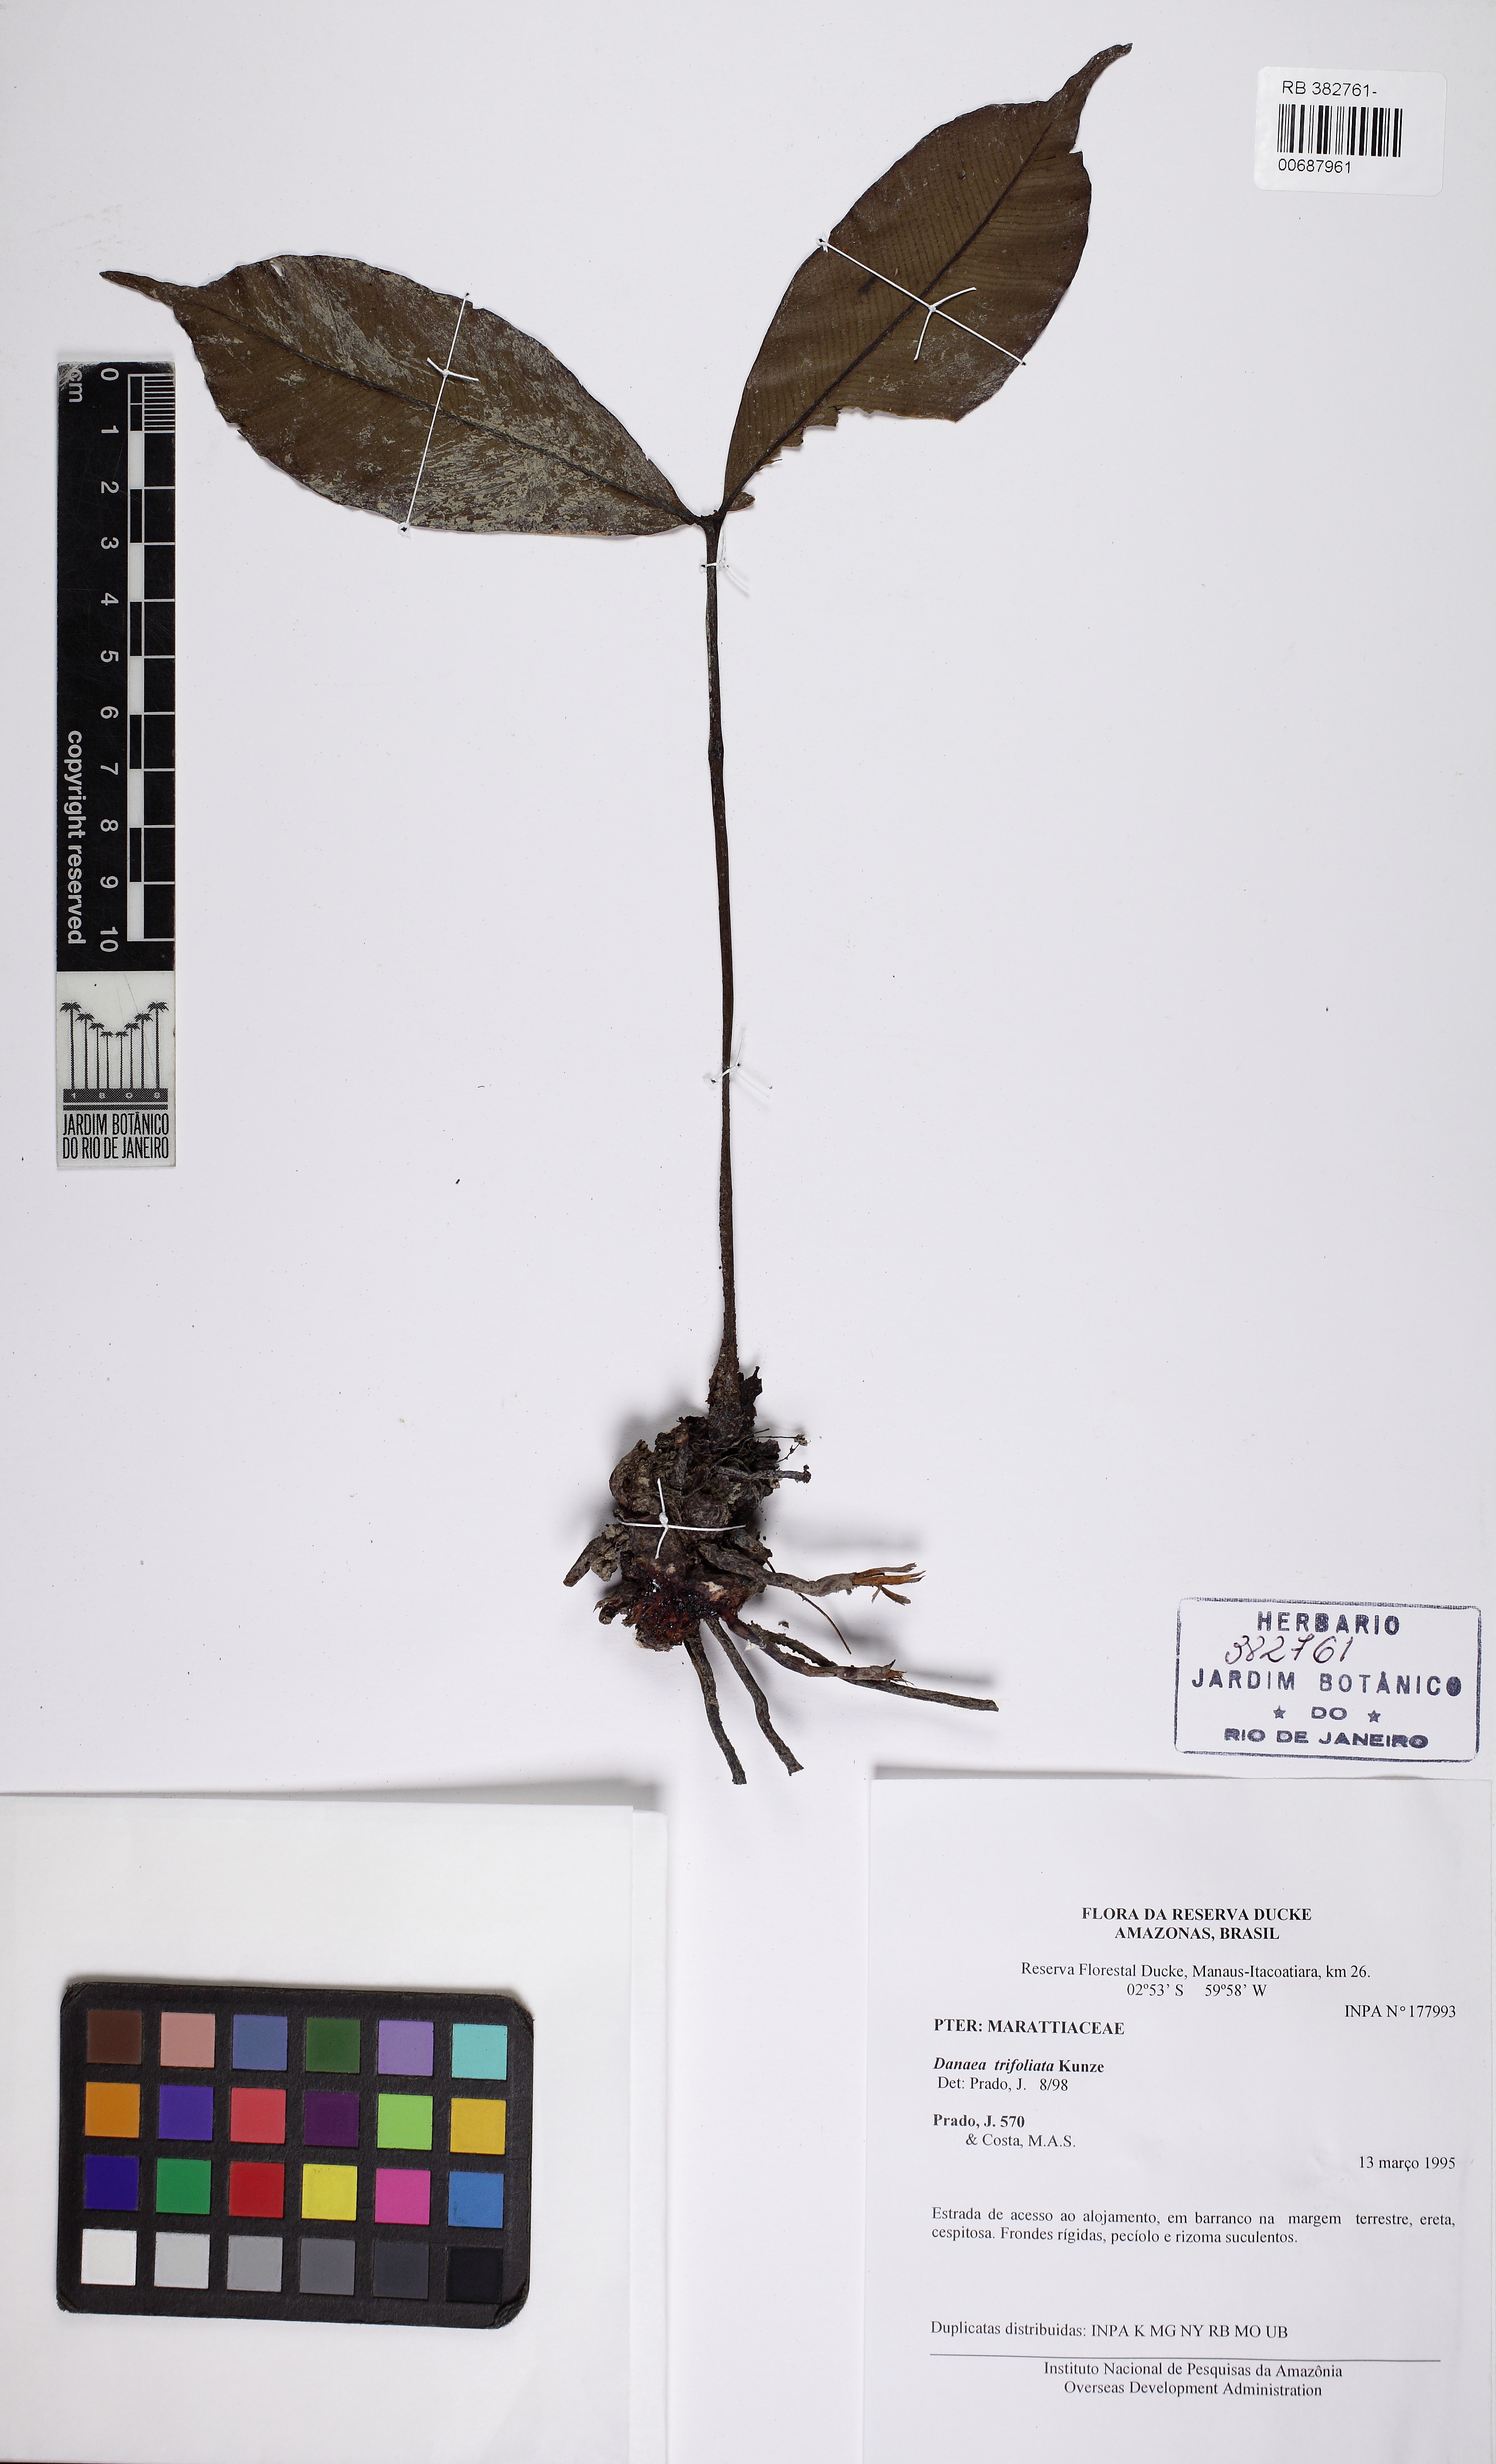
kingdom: Plantae
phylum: Tracheophyta
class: Polypodiopsida
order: Marattiales
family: Marattiaceae
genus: Danaea
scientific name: Danaea trifoliata
